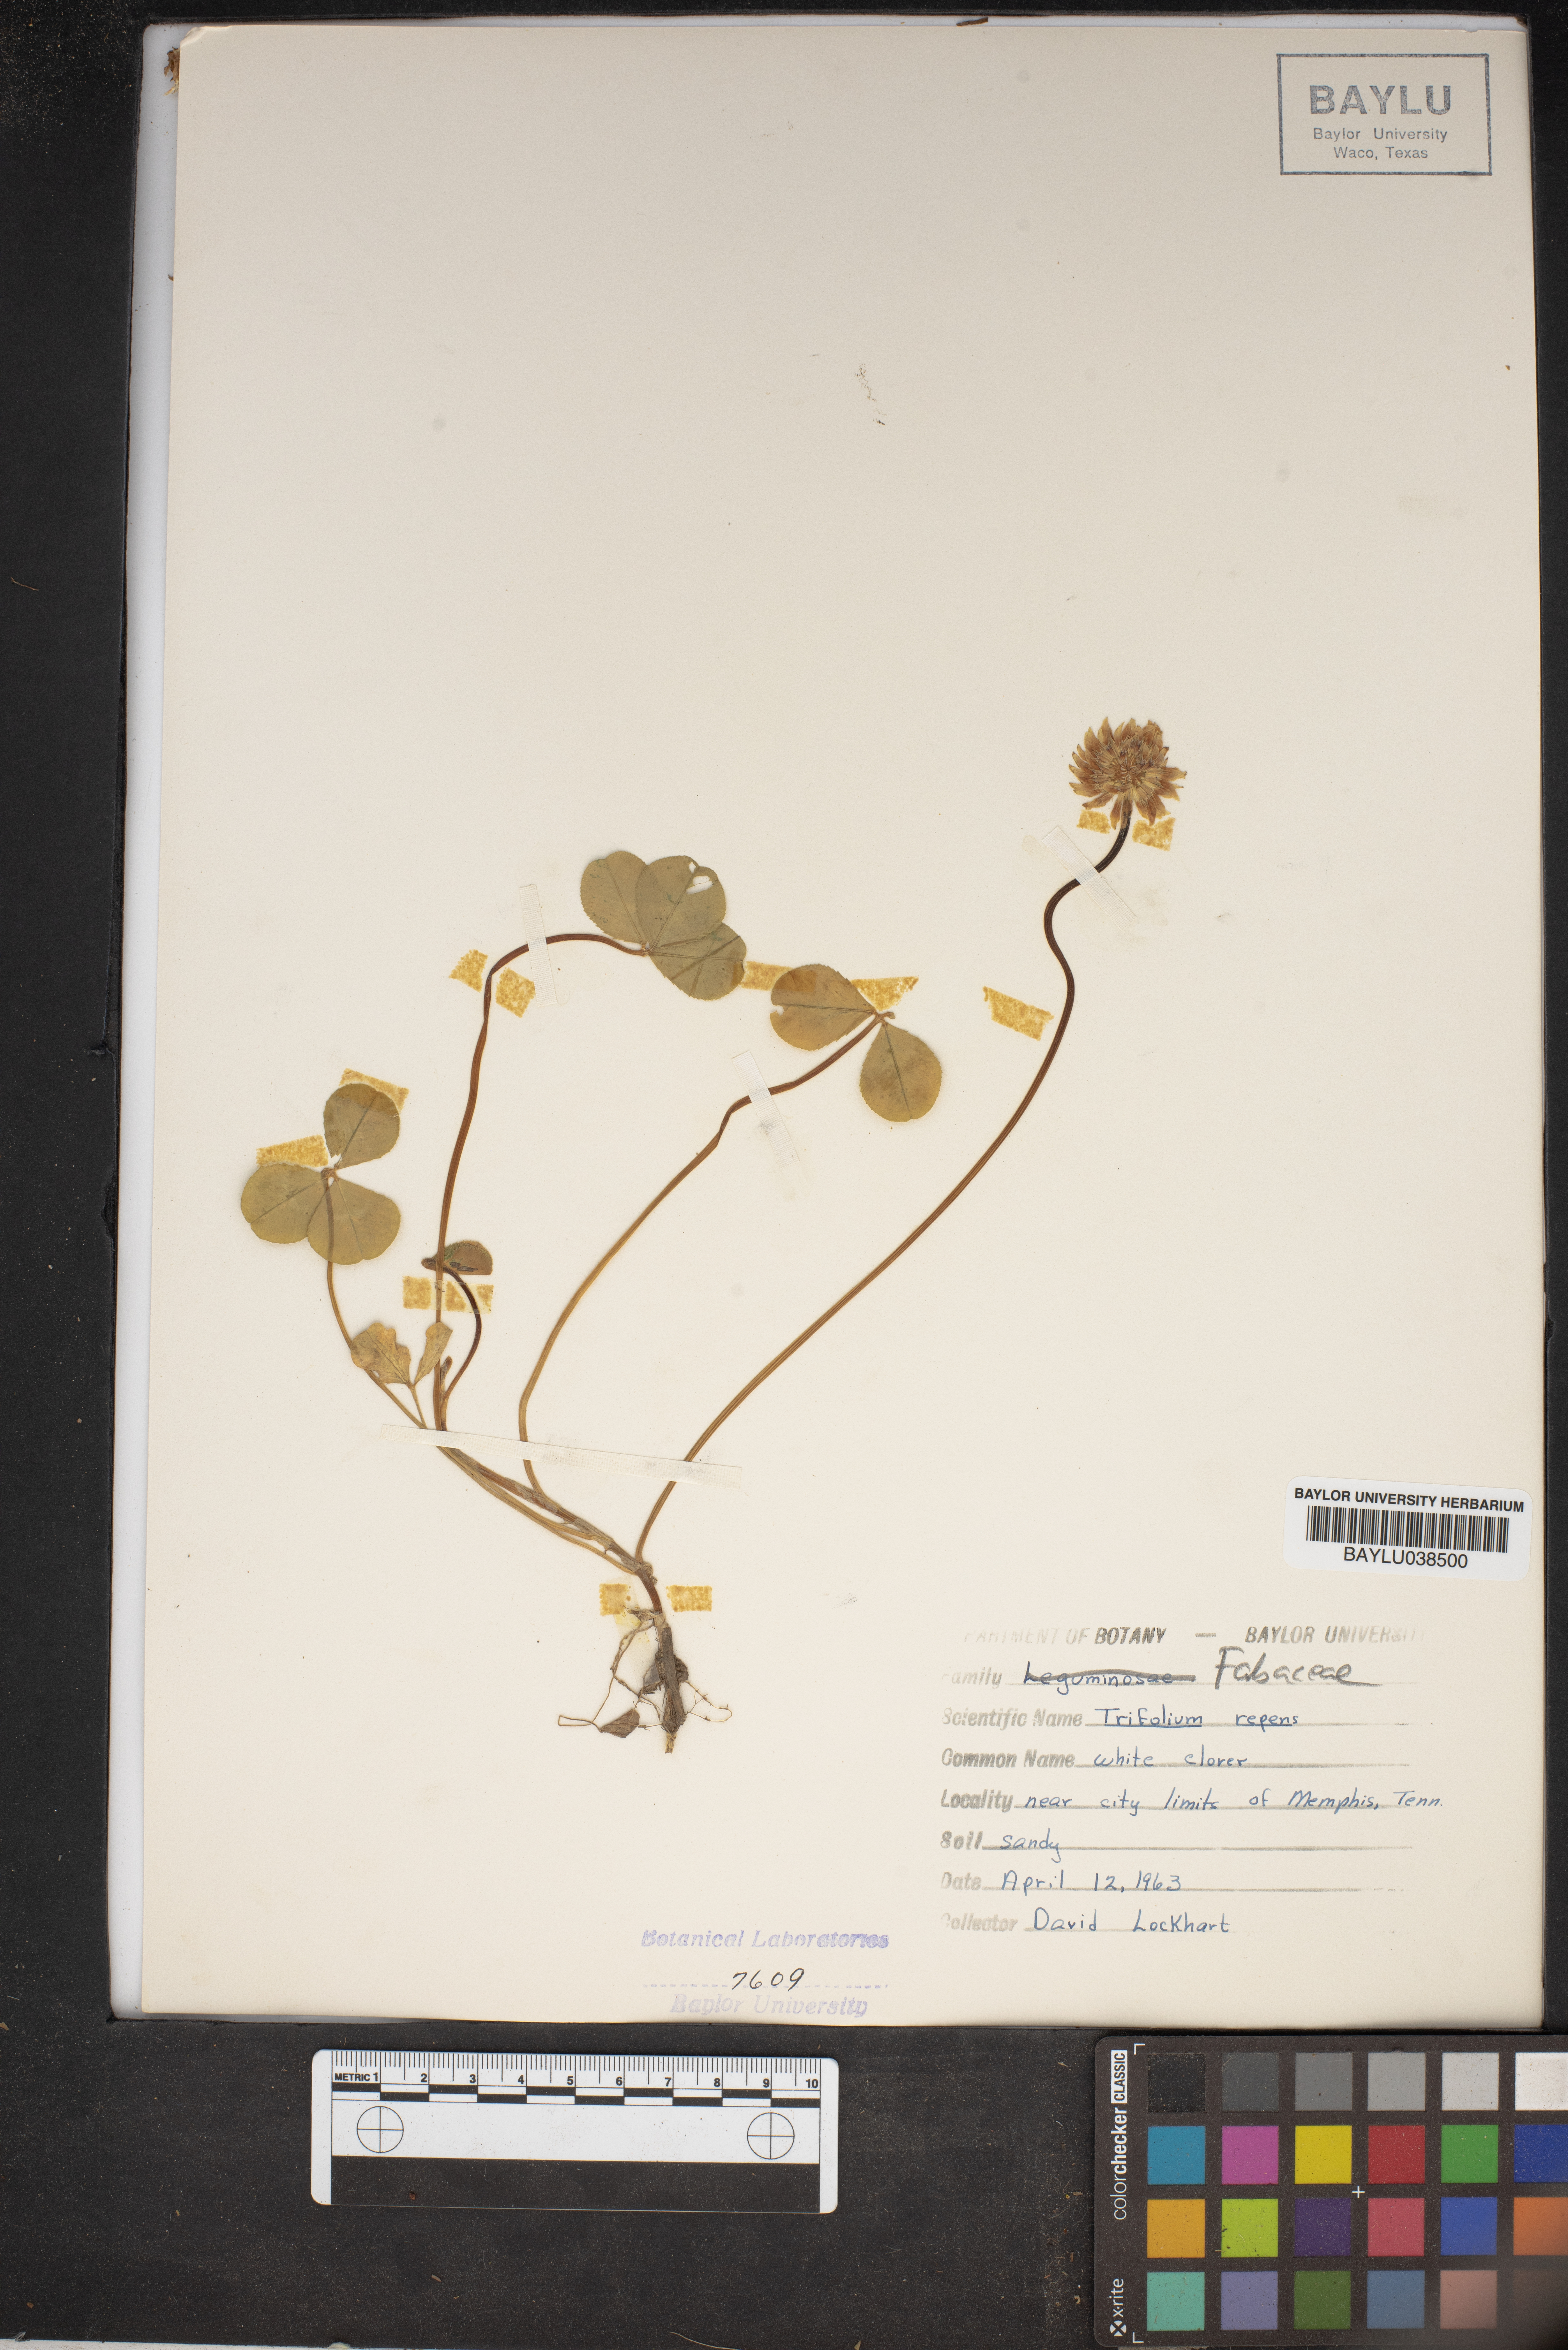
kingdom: Plantae
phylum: Tracheophyta
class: Magnoliopsida
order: Fabales
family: Fabaceae
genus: Trifolium
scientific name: Trifolium repens
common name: White clover
